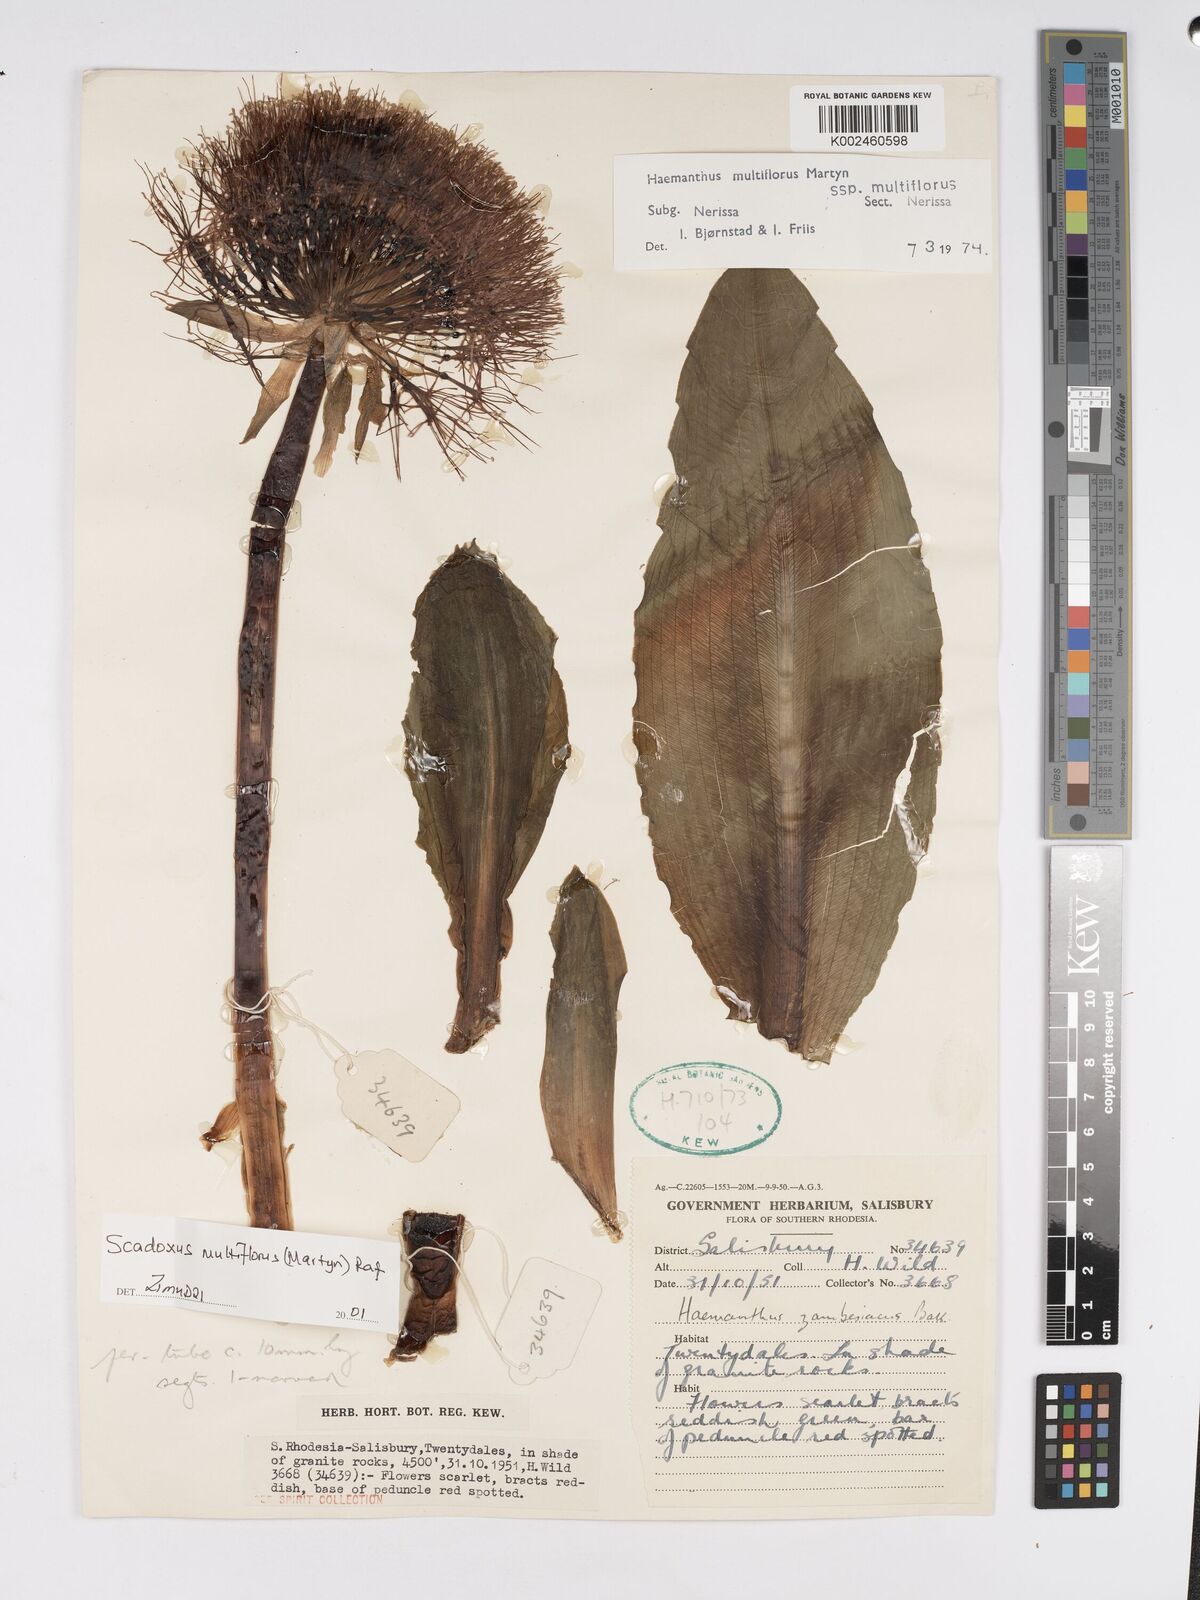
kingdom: Plantae
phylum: Tracheophyta
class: Liliopsida
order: Asparagales
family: Amaryllidaceae
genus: Scadoxus
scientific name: Scadoxus multiflorus
